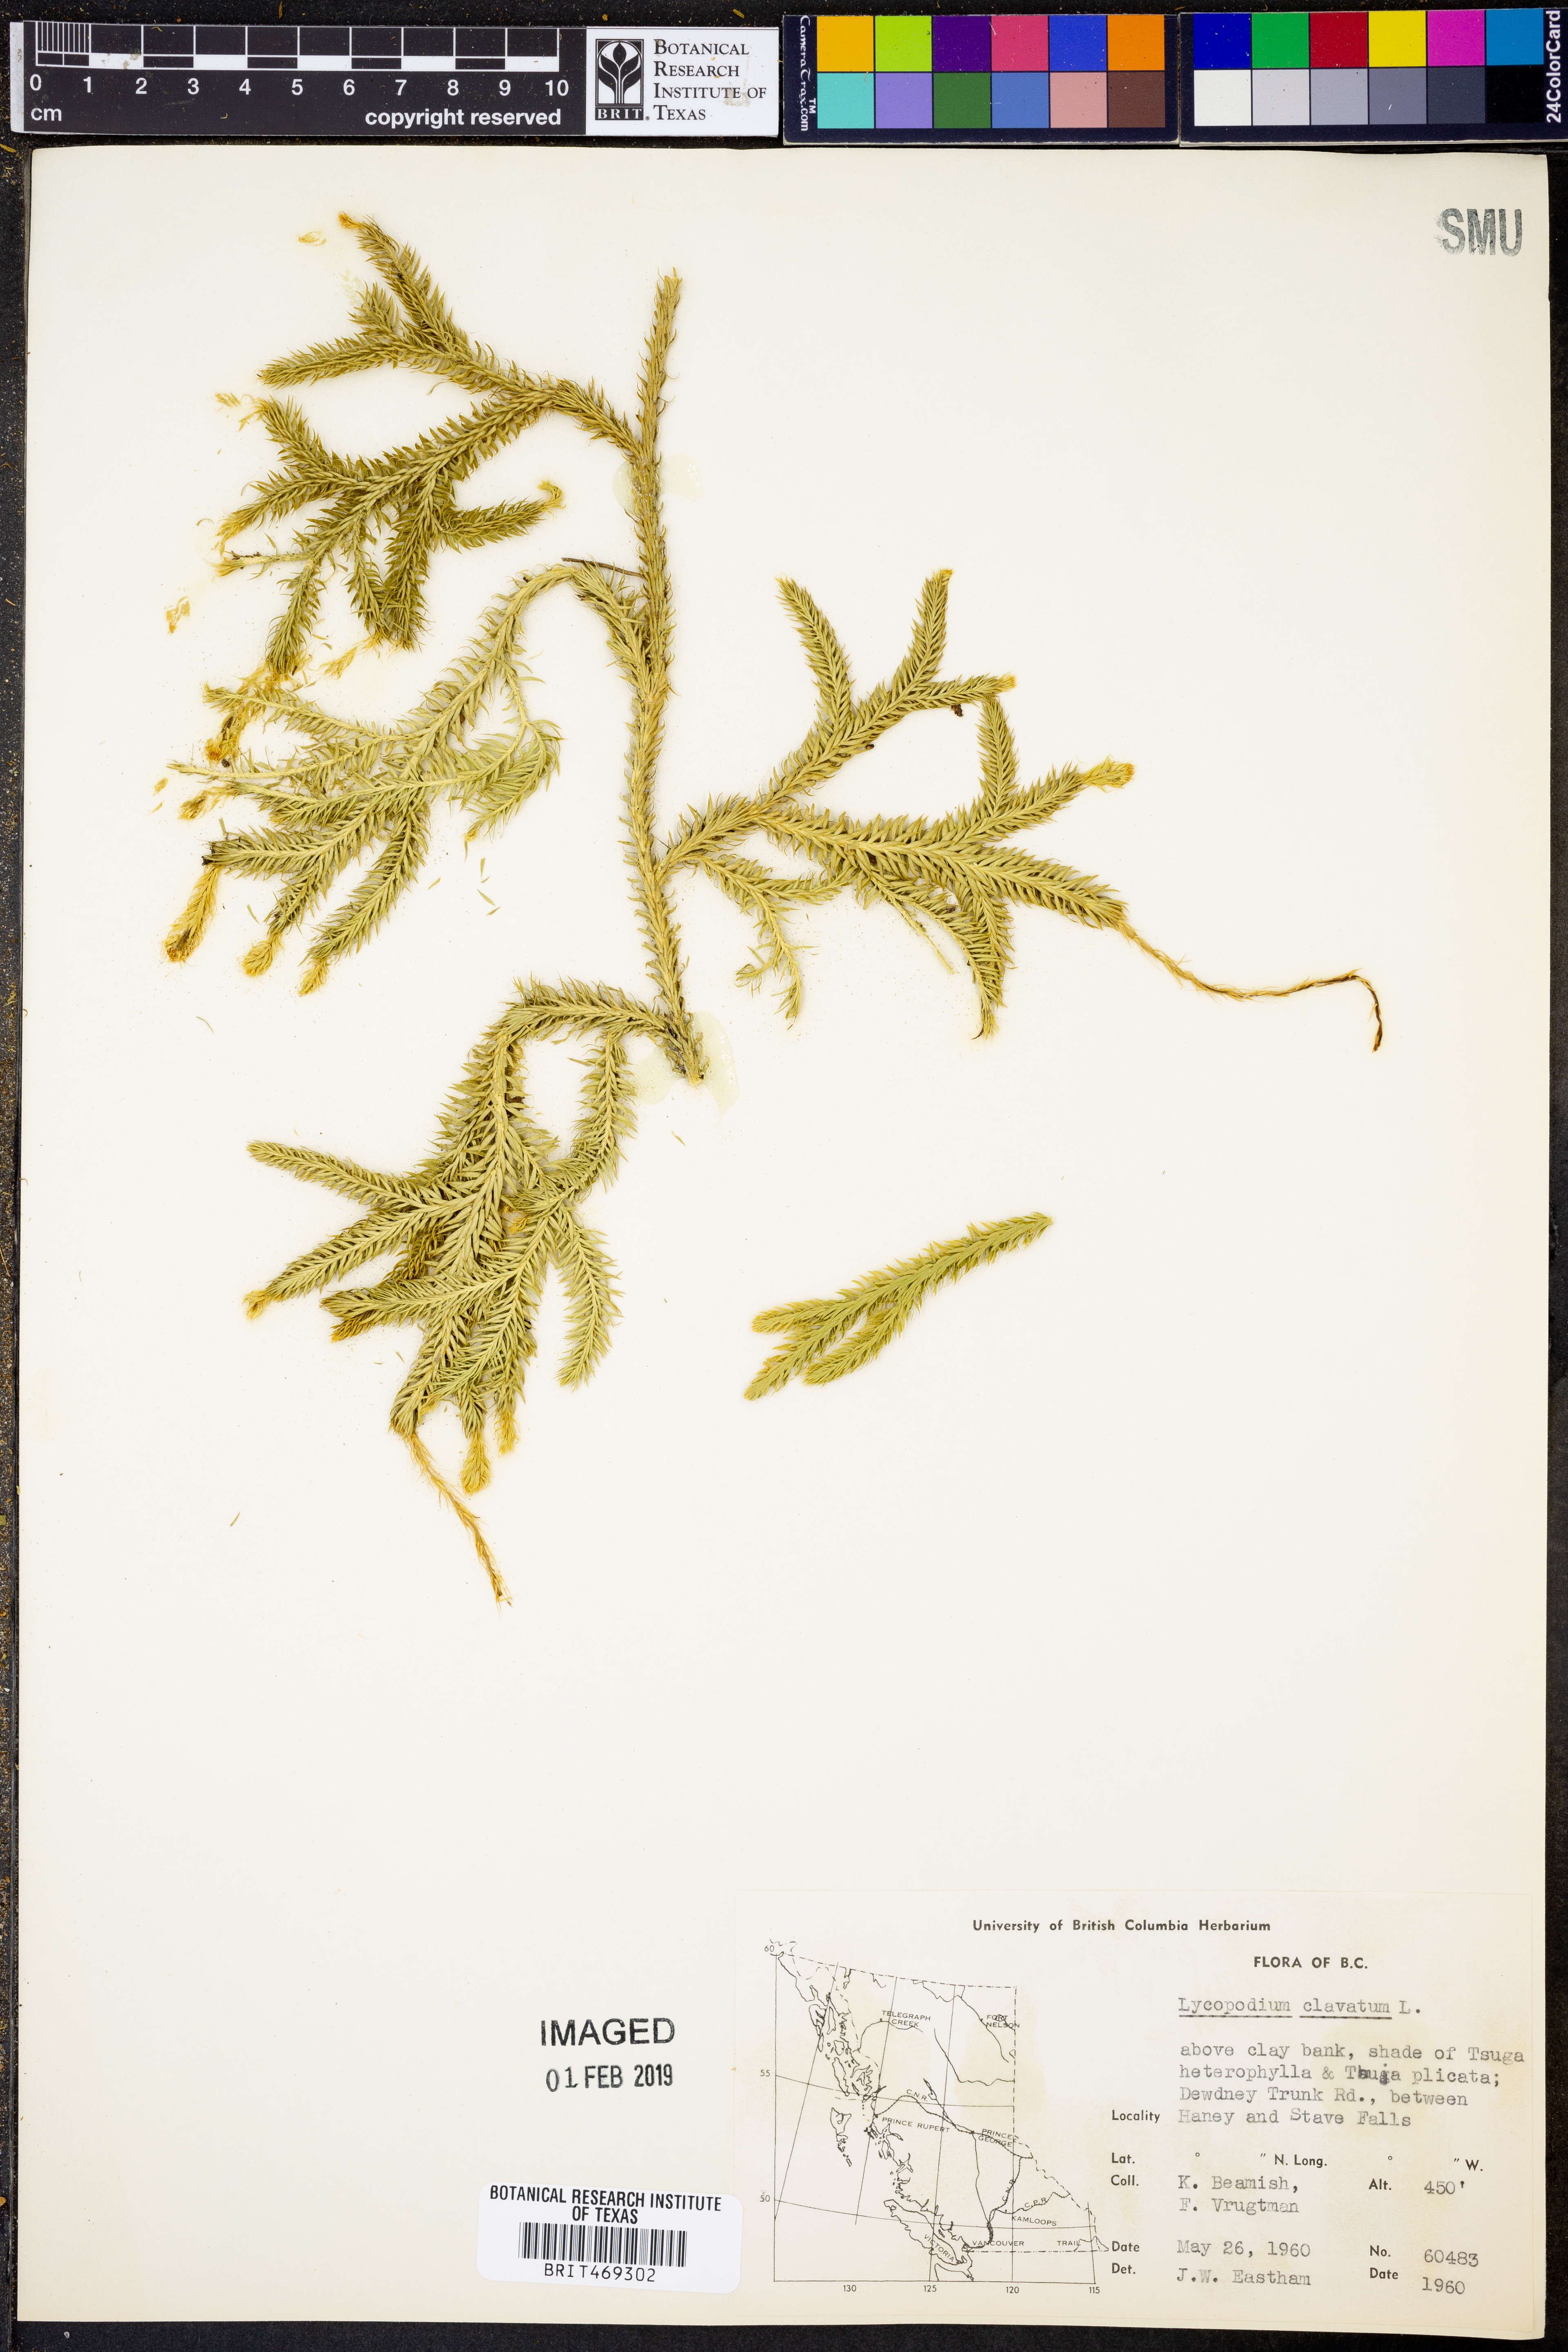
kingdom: Plantae
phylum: Tracheophyta
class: Lycopodiopsida
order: Lycopodiales
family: Lycopodiaceae
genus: Lycopodium
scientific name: Lycopodium clavatum
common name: Stag's-horn clubmoss
